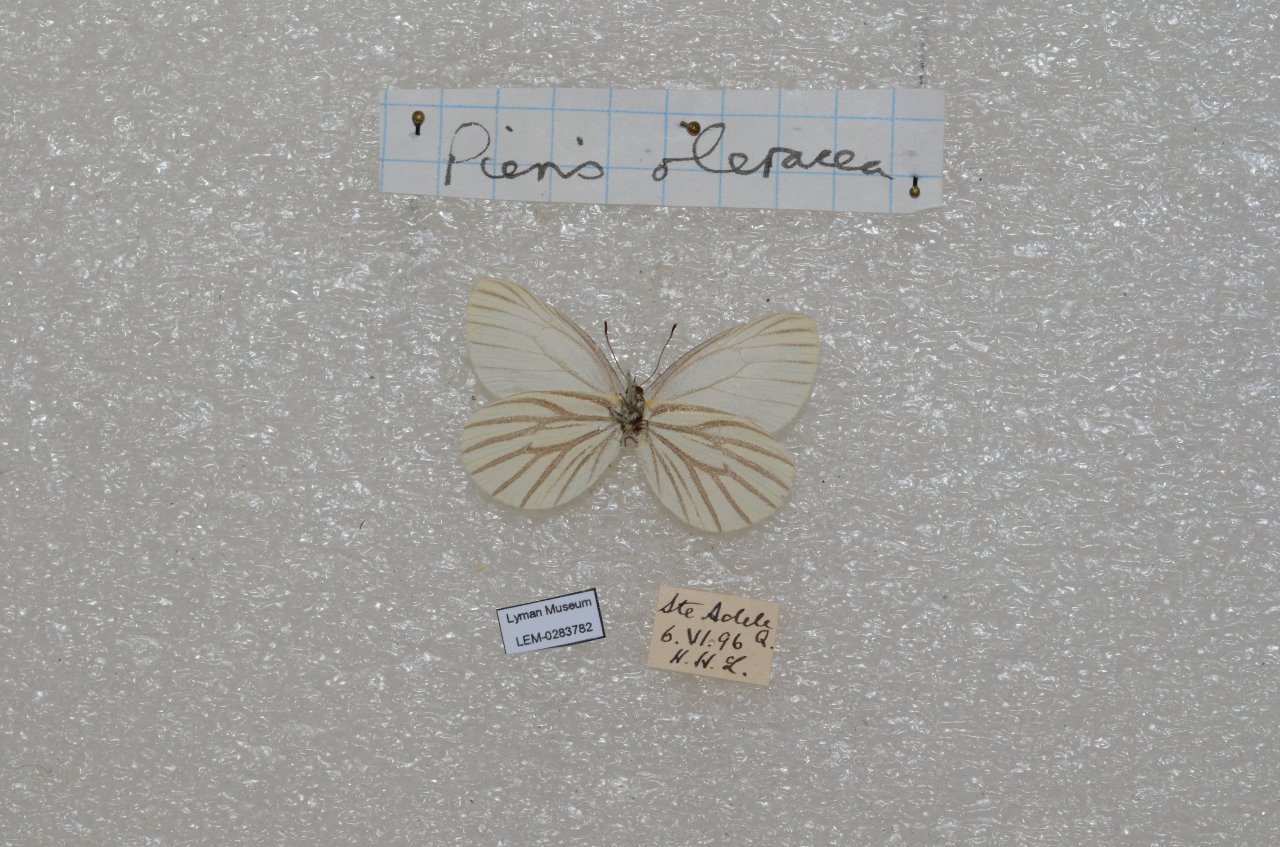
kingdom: Animalia
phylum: Arthropoda
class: Insecta
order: Lepidoptera
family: Pieridae
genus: Pieris
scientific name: Pieris oleracea
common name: Mustard White
